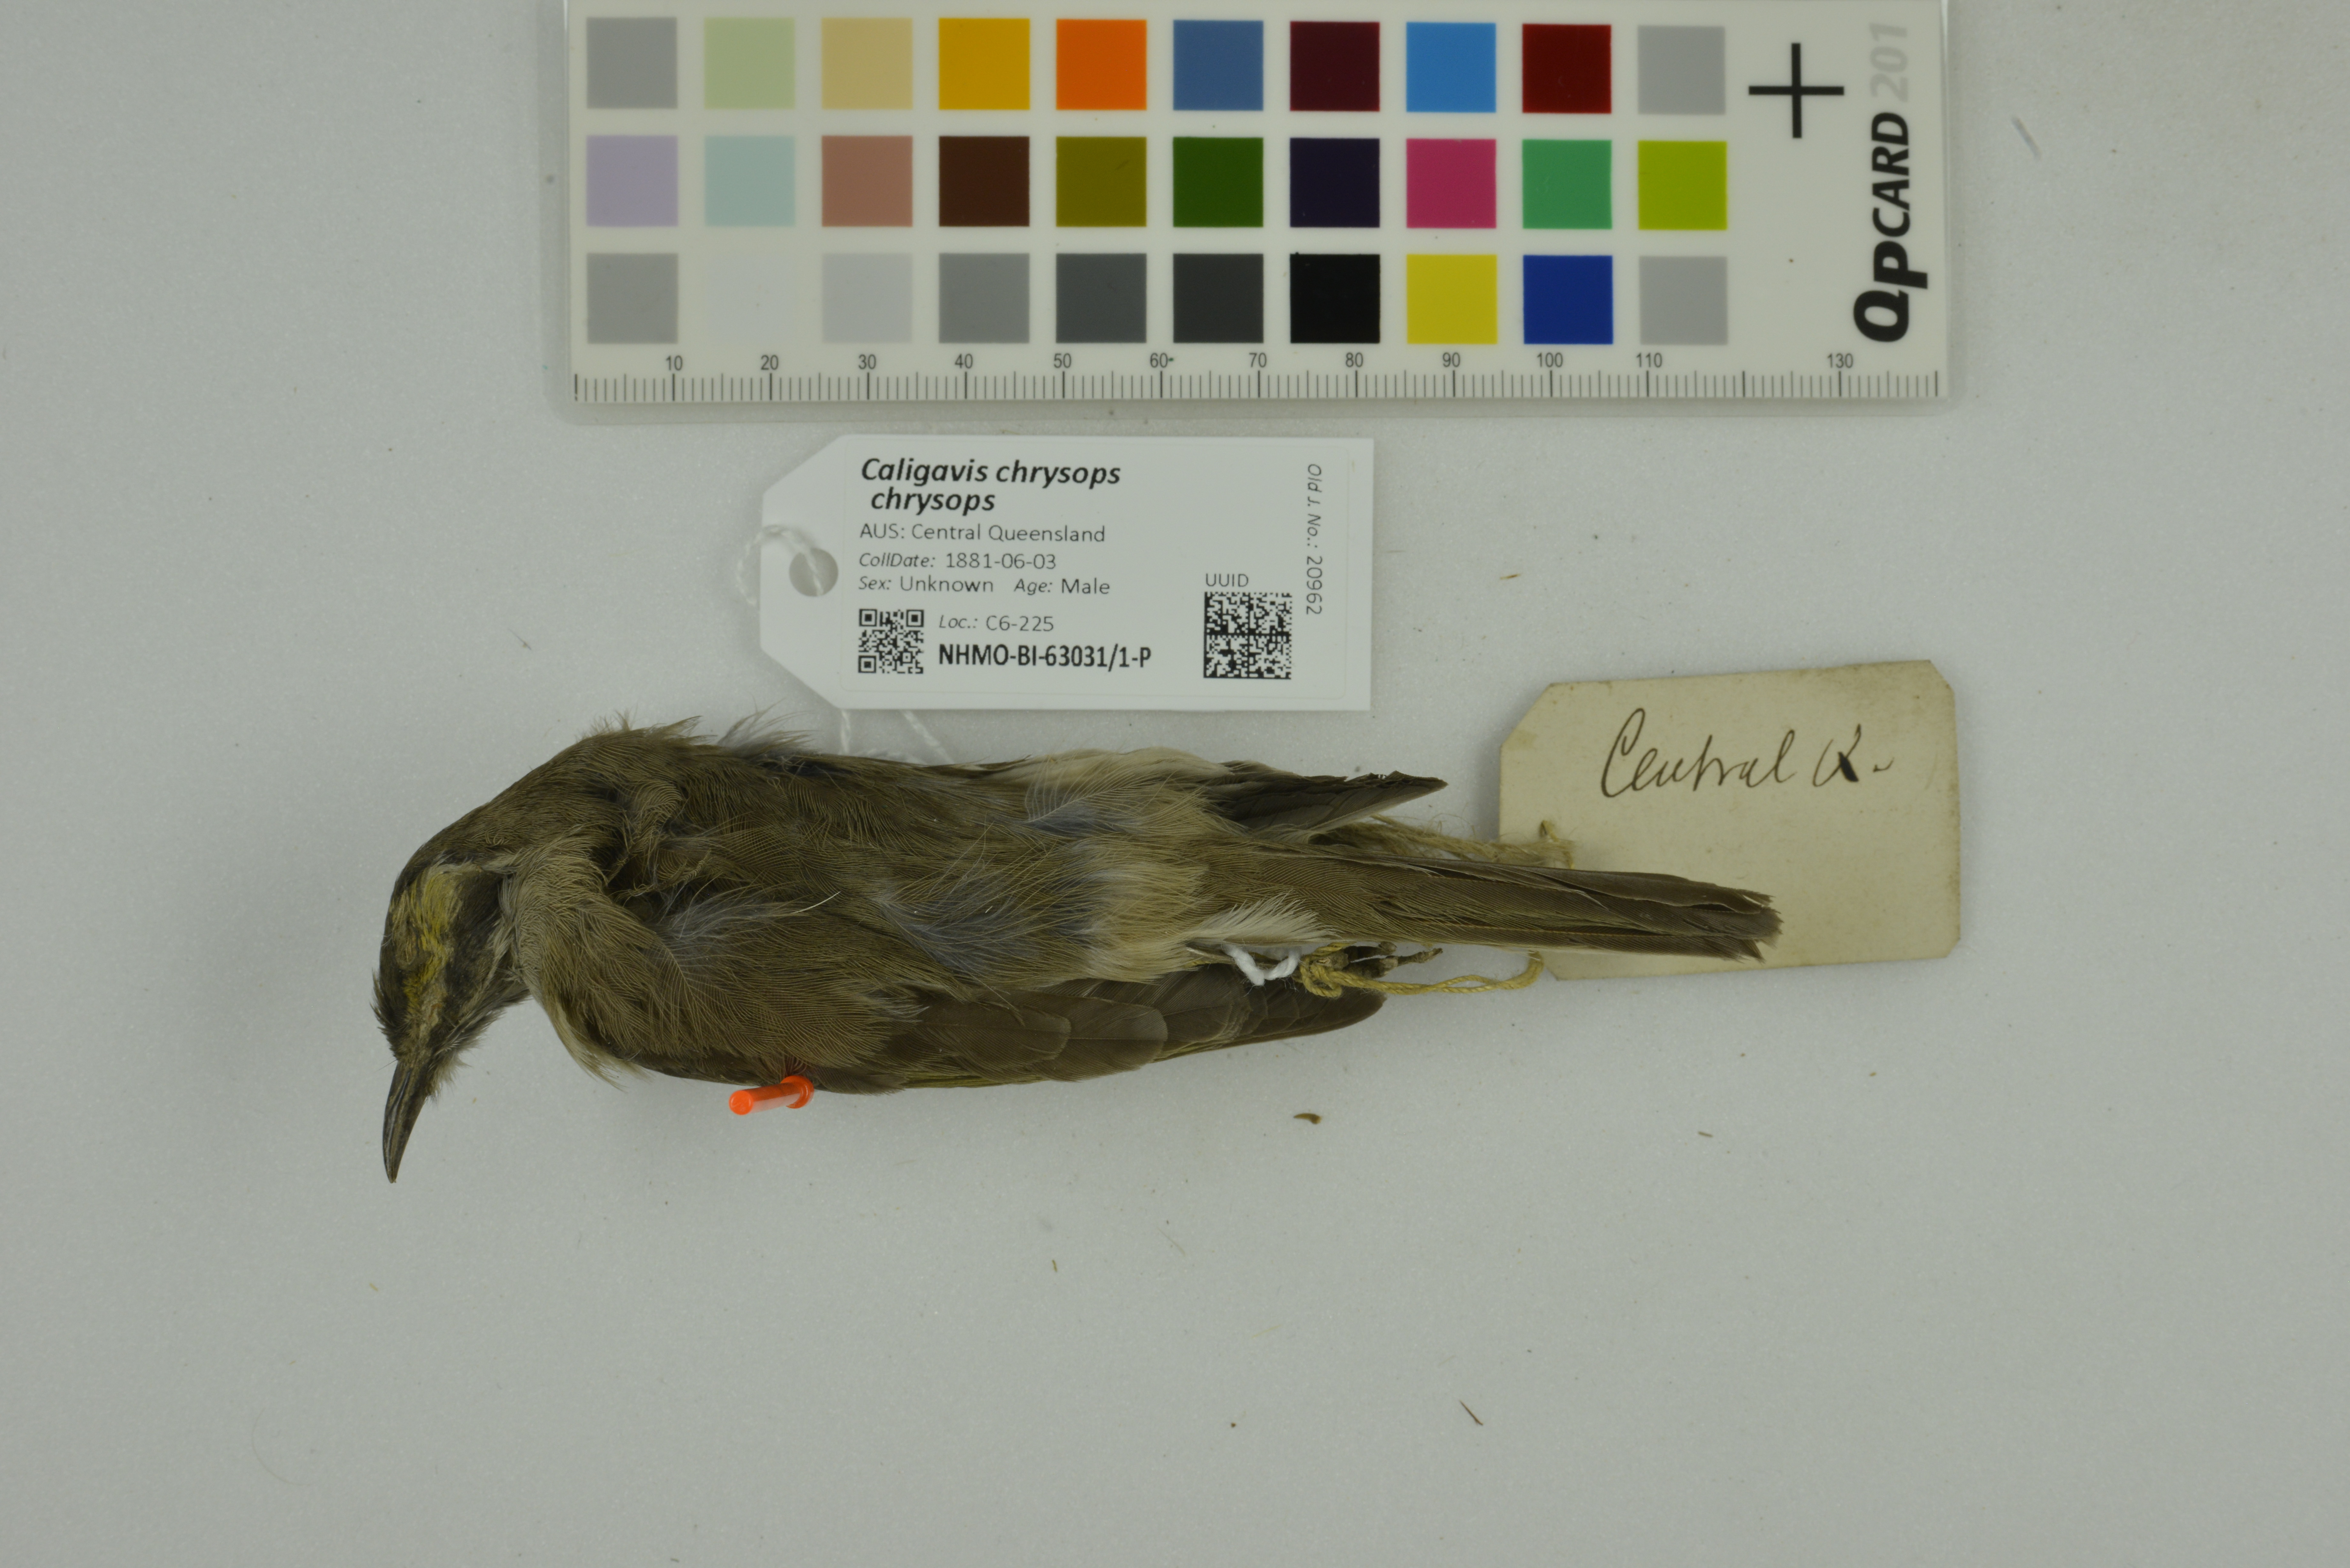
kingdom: Animalia
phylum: Chordata
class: Aves
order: Passeriformes
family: Meliphagidae
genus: Caligavis
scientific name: Caligavis chrysops
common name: Yellow-faced honeyeater
